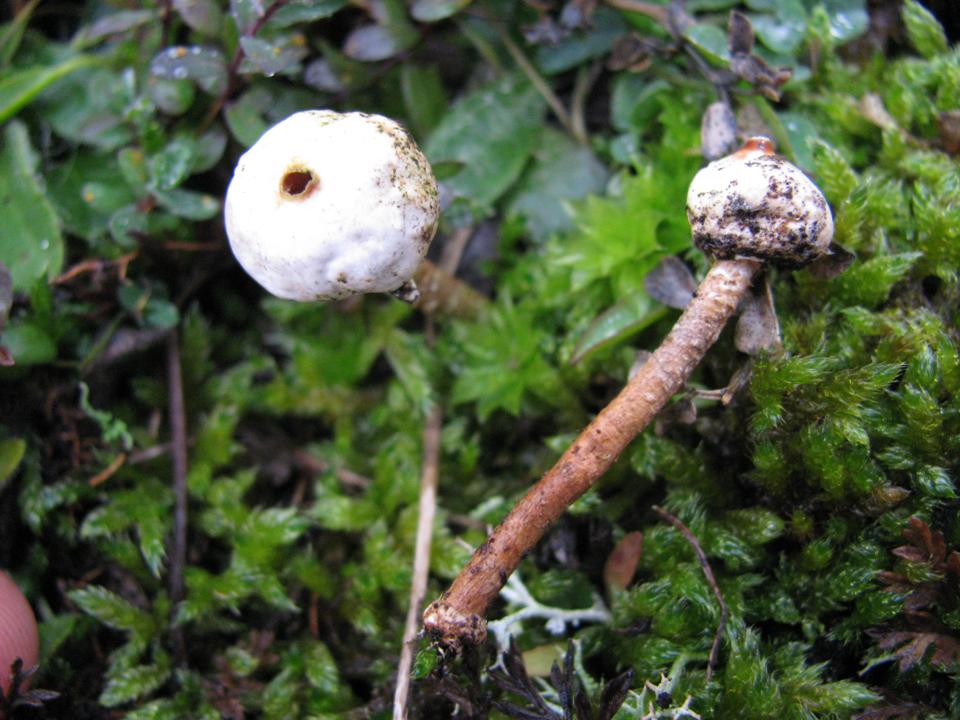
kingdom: Fungi
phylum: Basidiomycota
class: Agaricomycetes
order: Agaricales
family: Agaricaceae
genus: Tulostoma
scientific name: Tulostoma brumale
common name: vinter-stilkbovist
